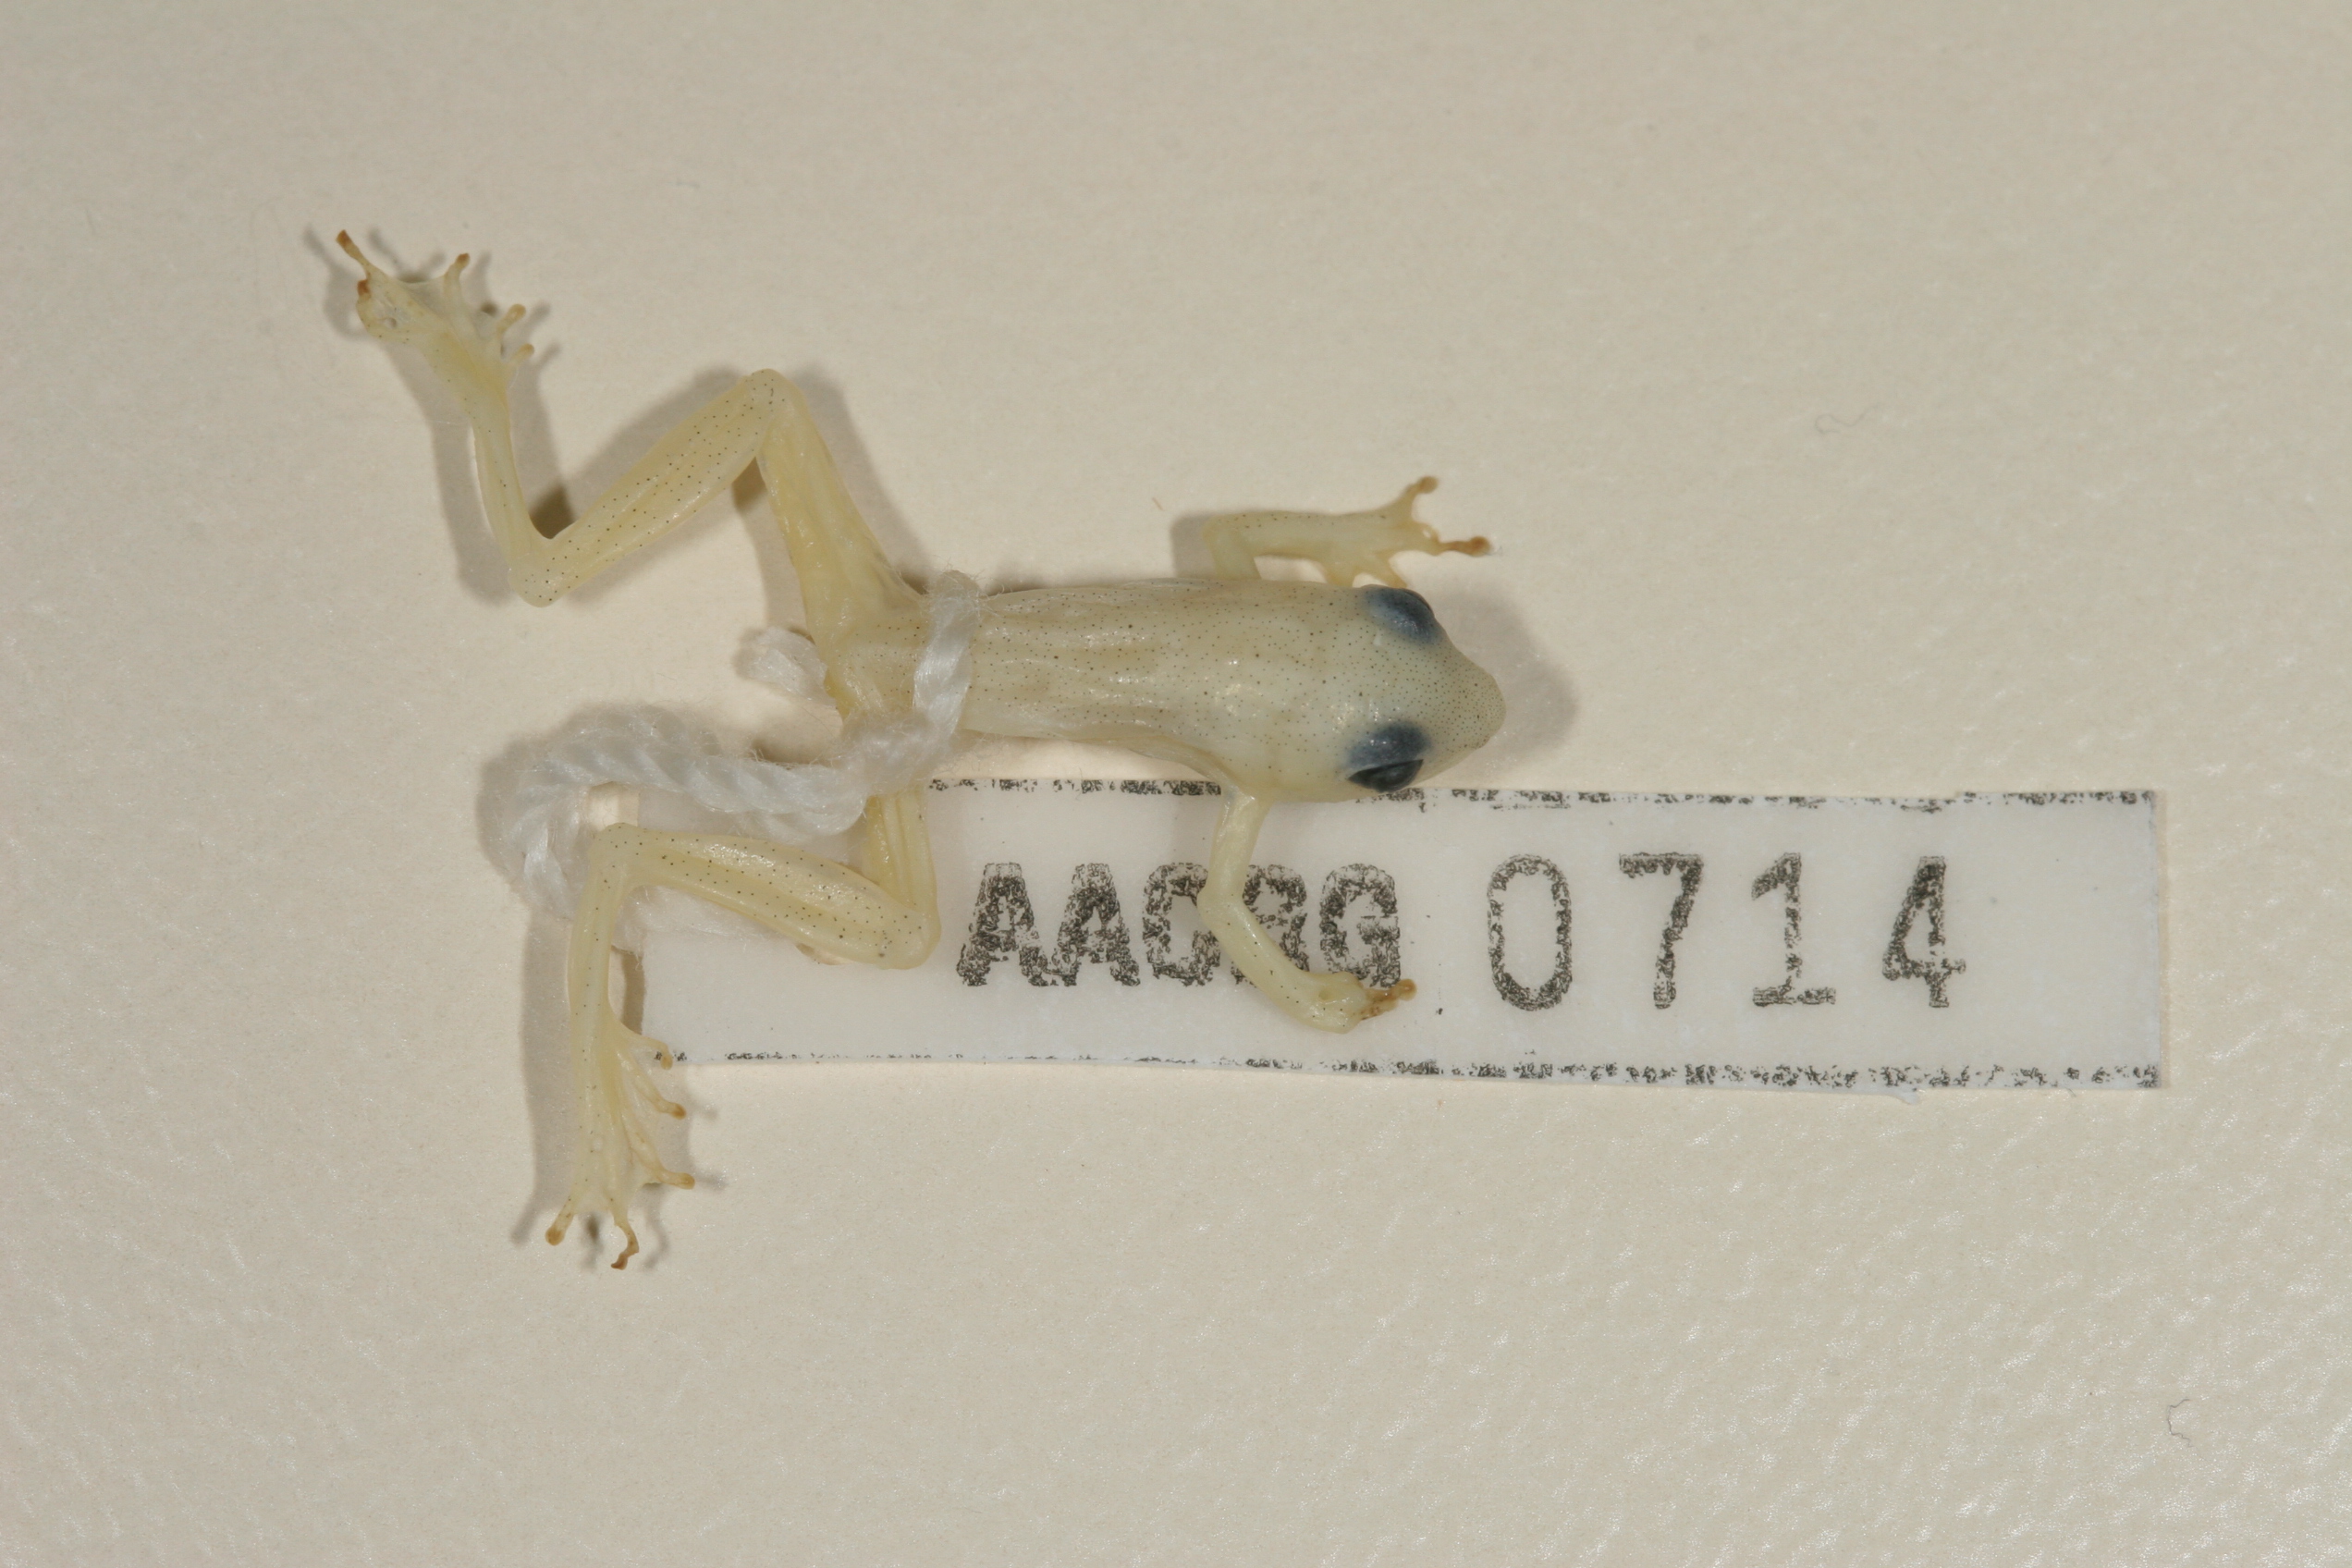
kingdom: Animalia
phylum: Chordata
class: Amphibia
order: Anura
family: Hyperoliidae
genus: Hyperolius
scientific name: Hyperolius nasutus
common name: Sharp-and-blunt-snouted sedge frog
